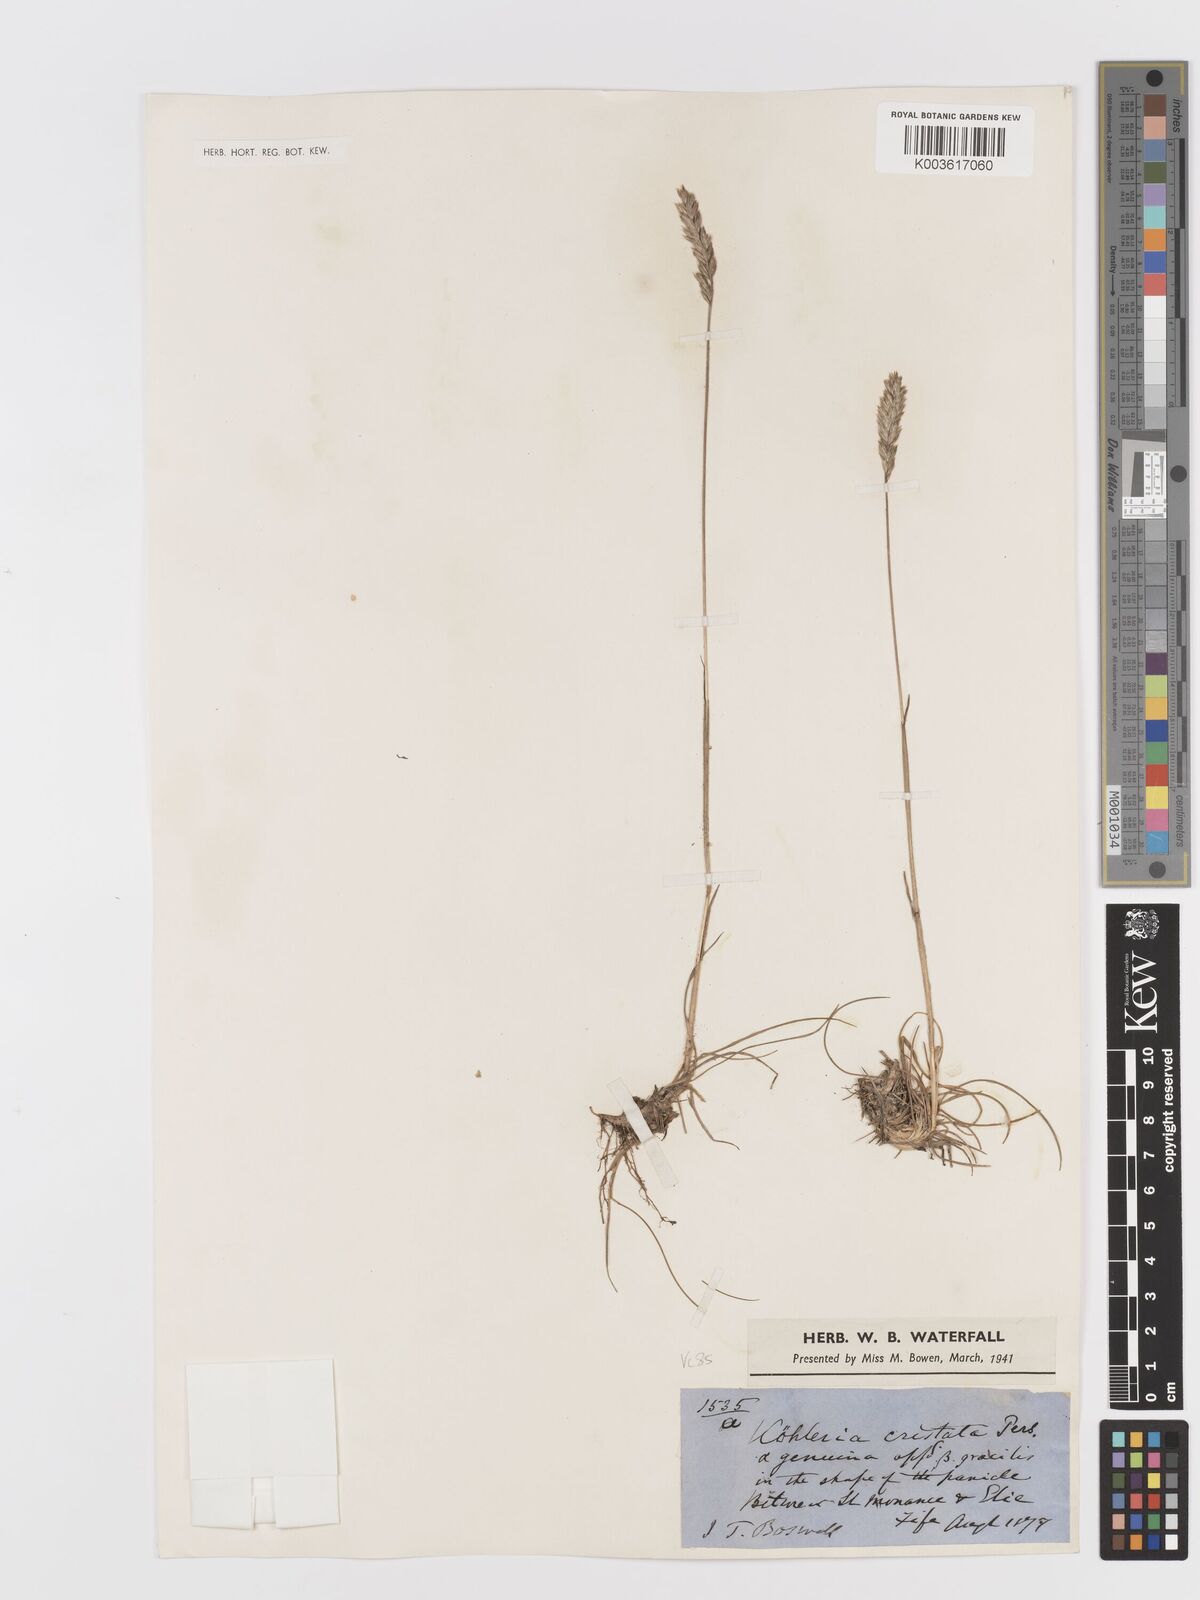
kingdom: Plantae
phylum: Tracheophyta
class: Liliopsida
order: Poales
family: Poaceae
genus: Koeleria
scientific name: Koeleria macrantha
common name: Crested hair-grass
